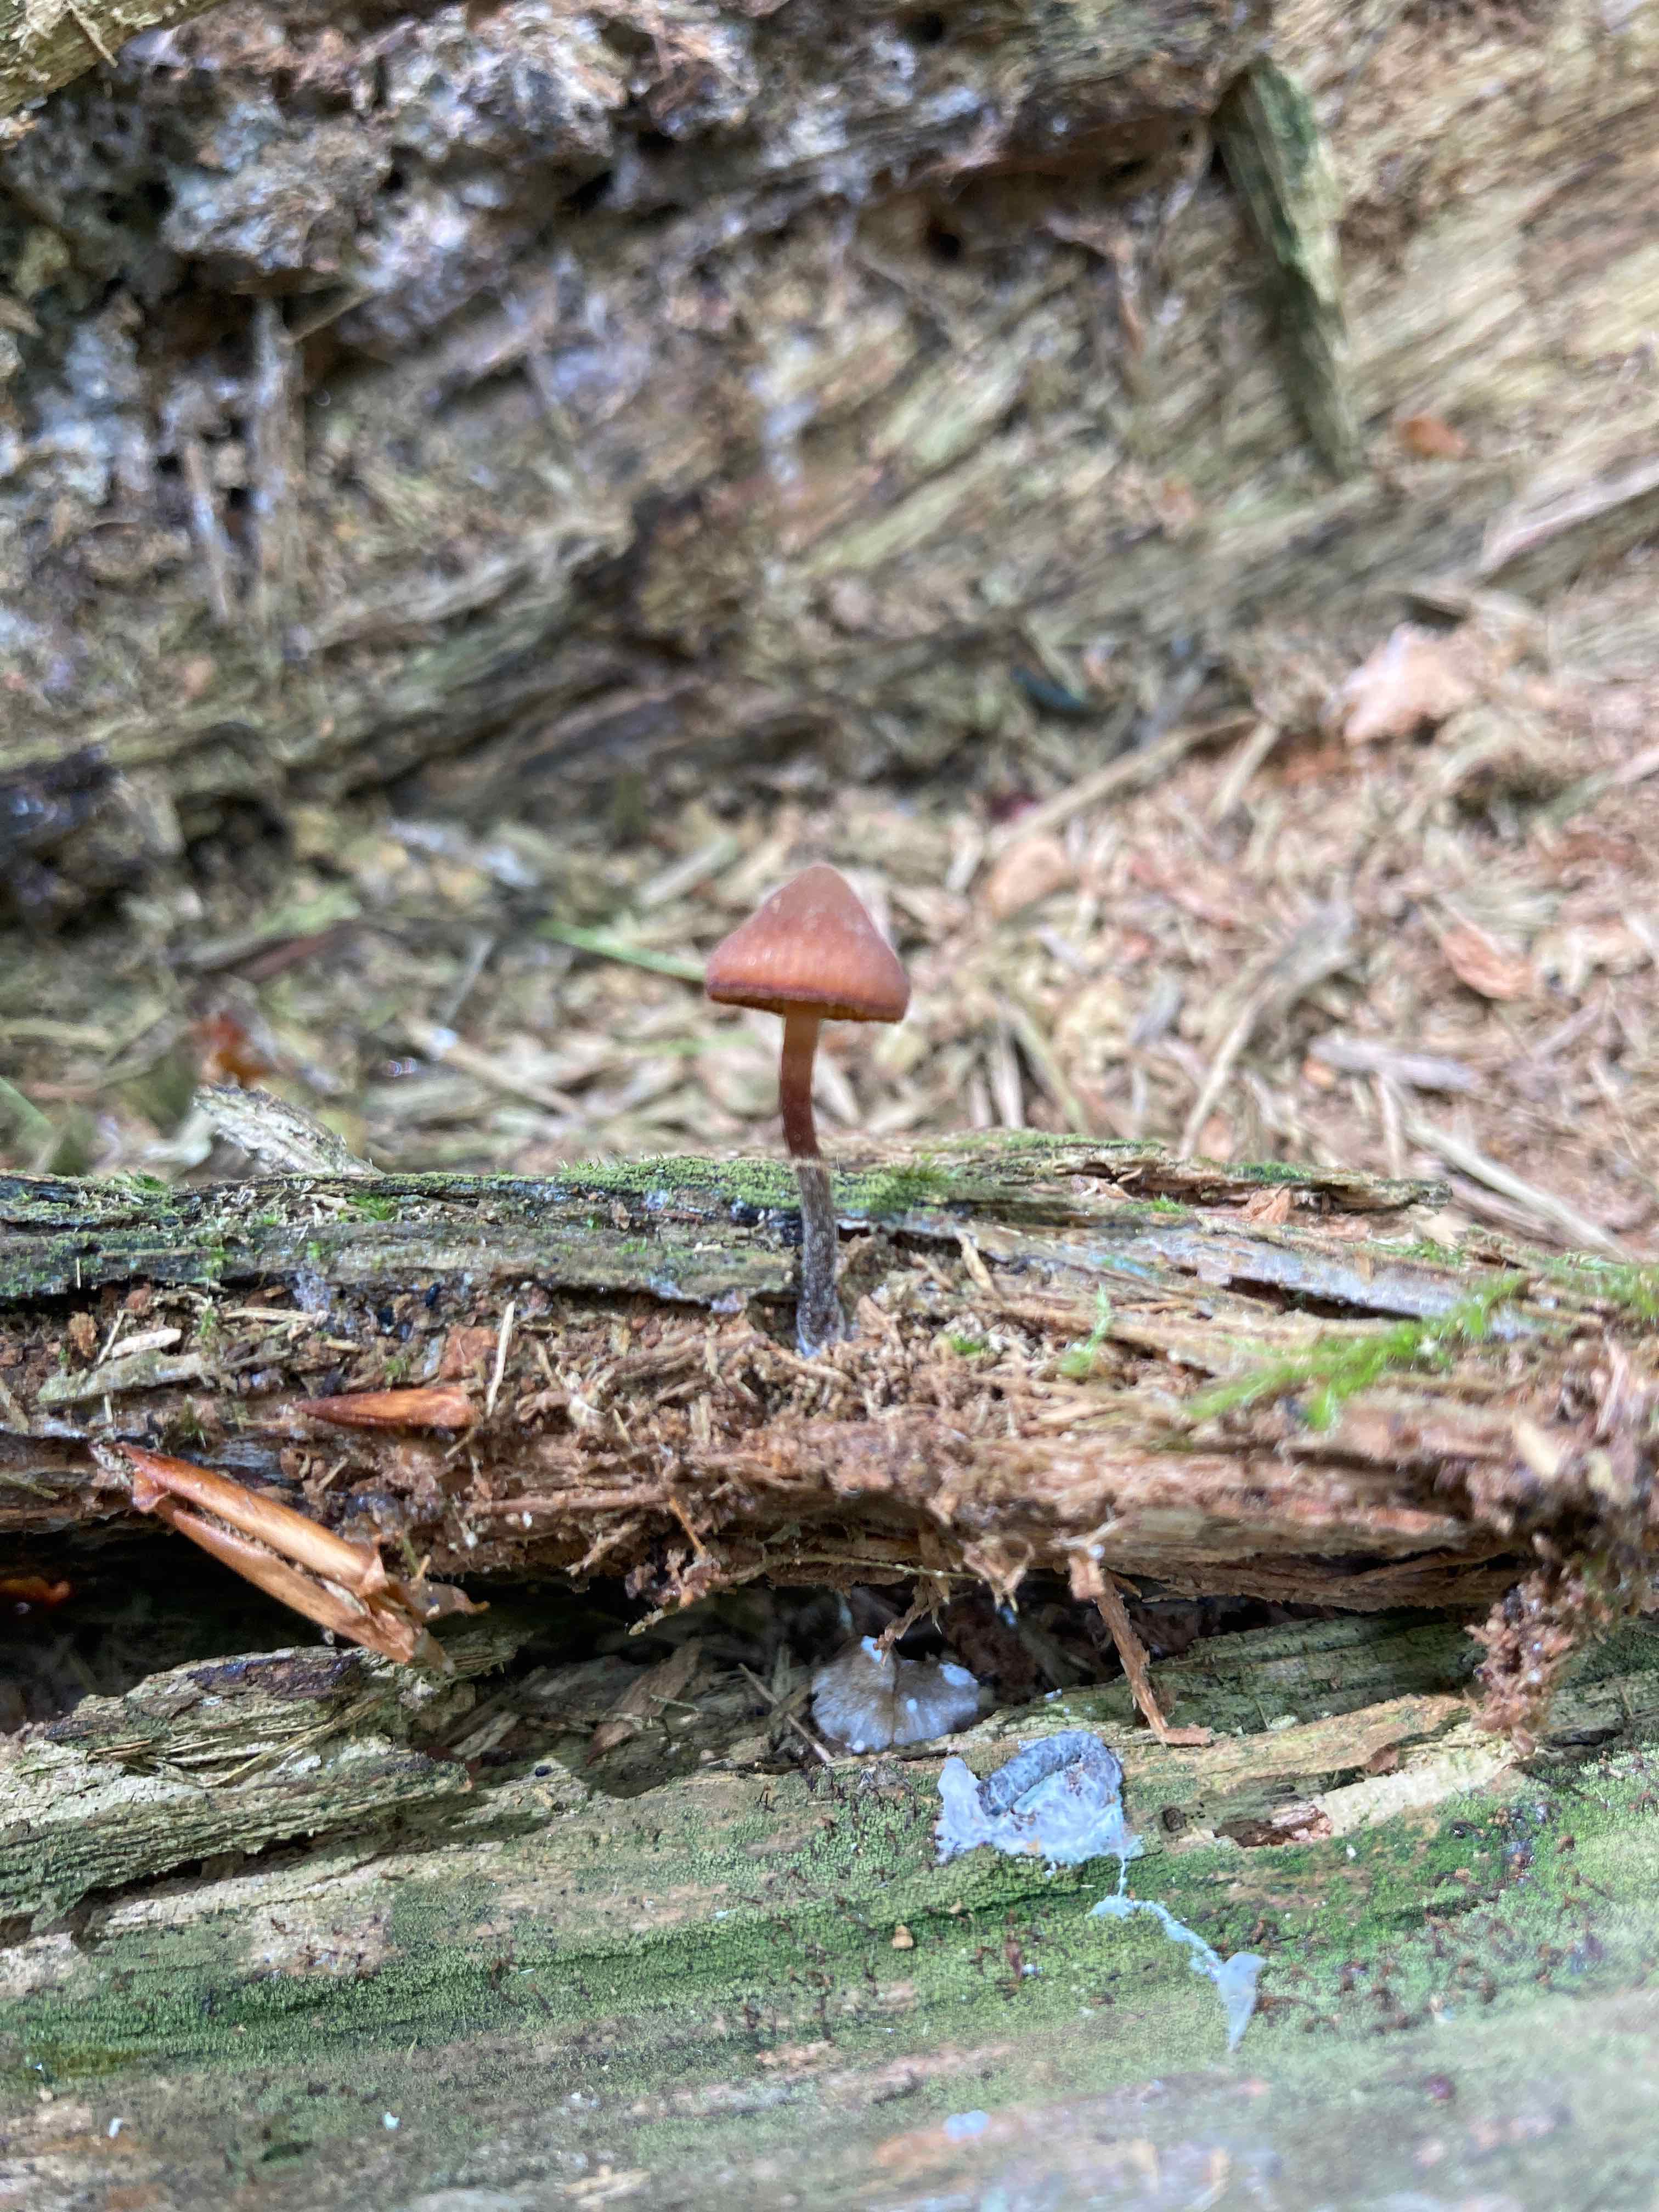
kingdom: Fungi
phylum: Basidiomycota
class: Agaricomycetes
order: Agaricales
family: Hymenogastraceae
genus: Galerina
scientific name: Galerina triscopa
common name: spidspuklet hjelmhat
